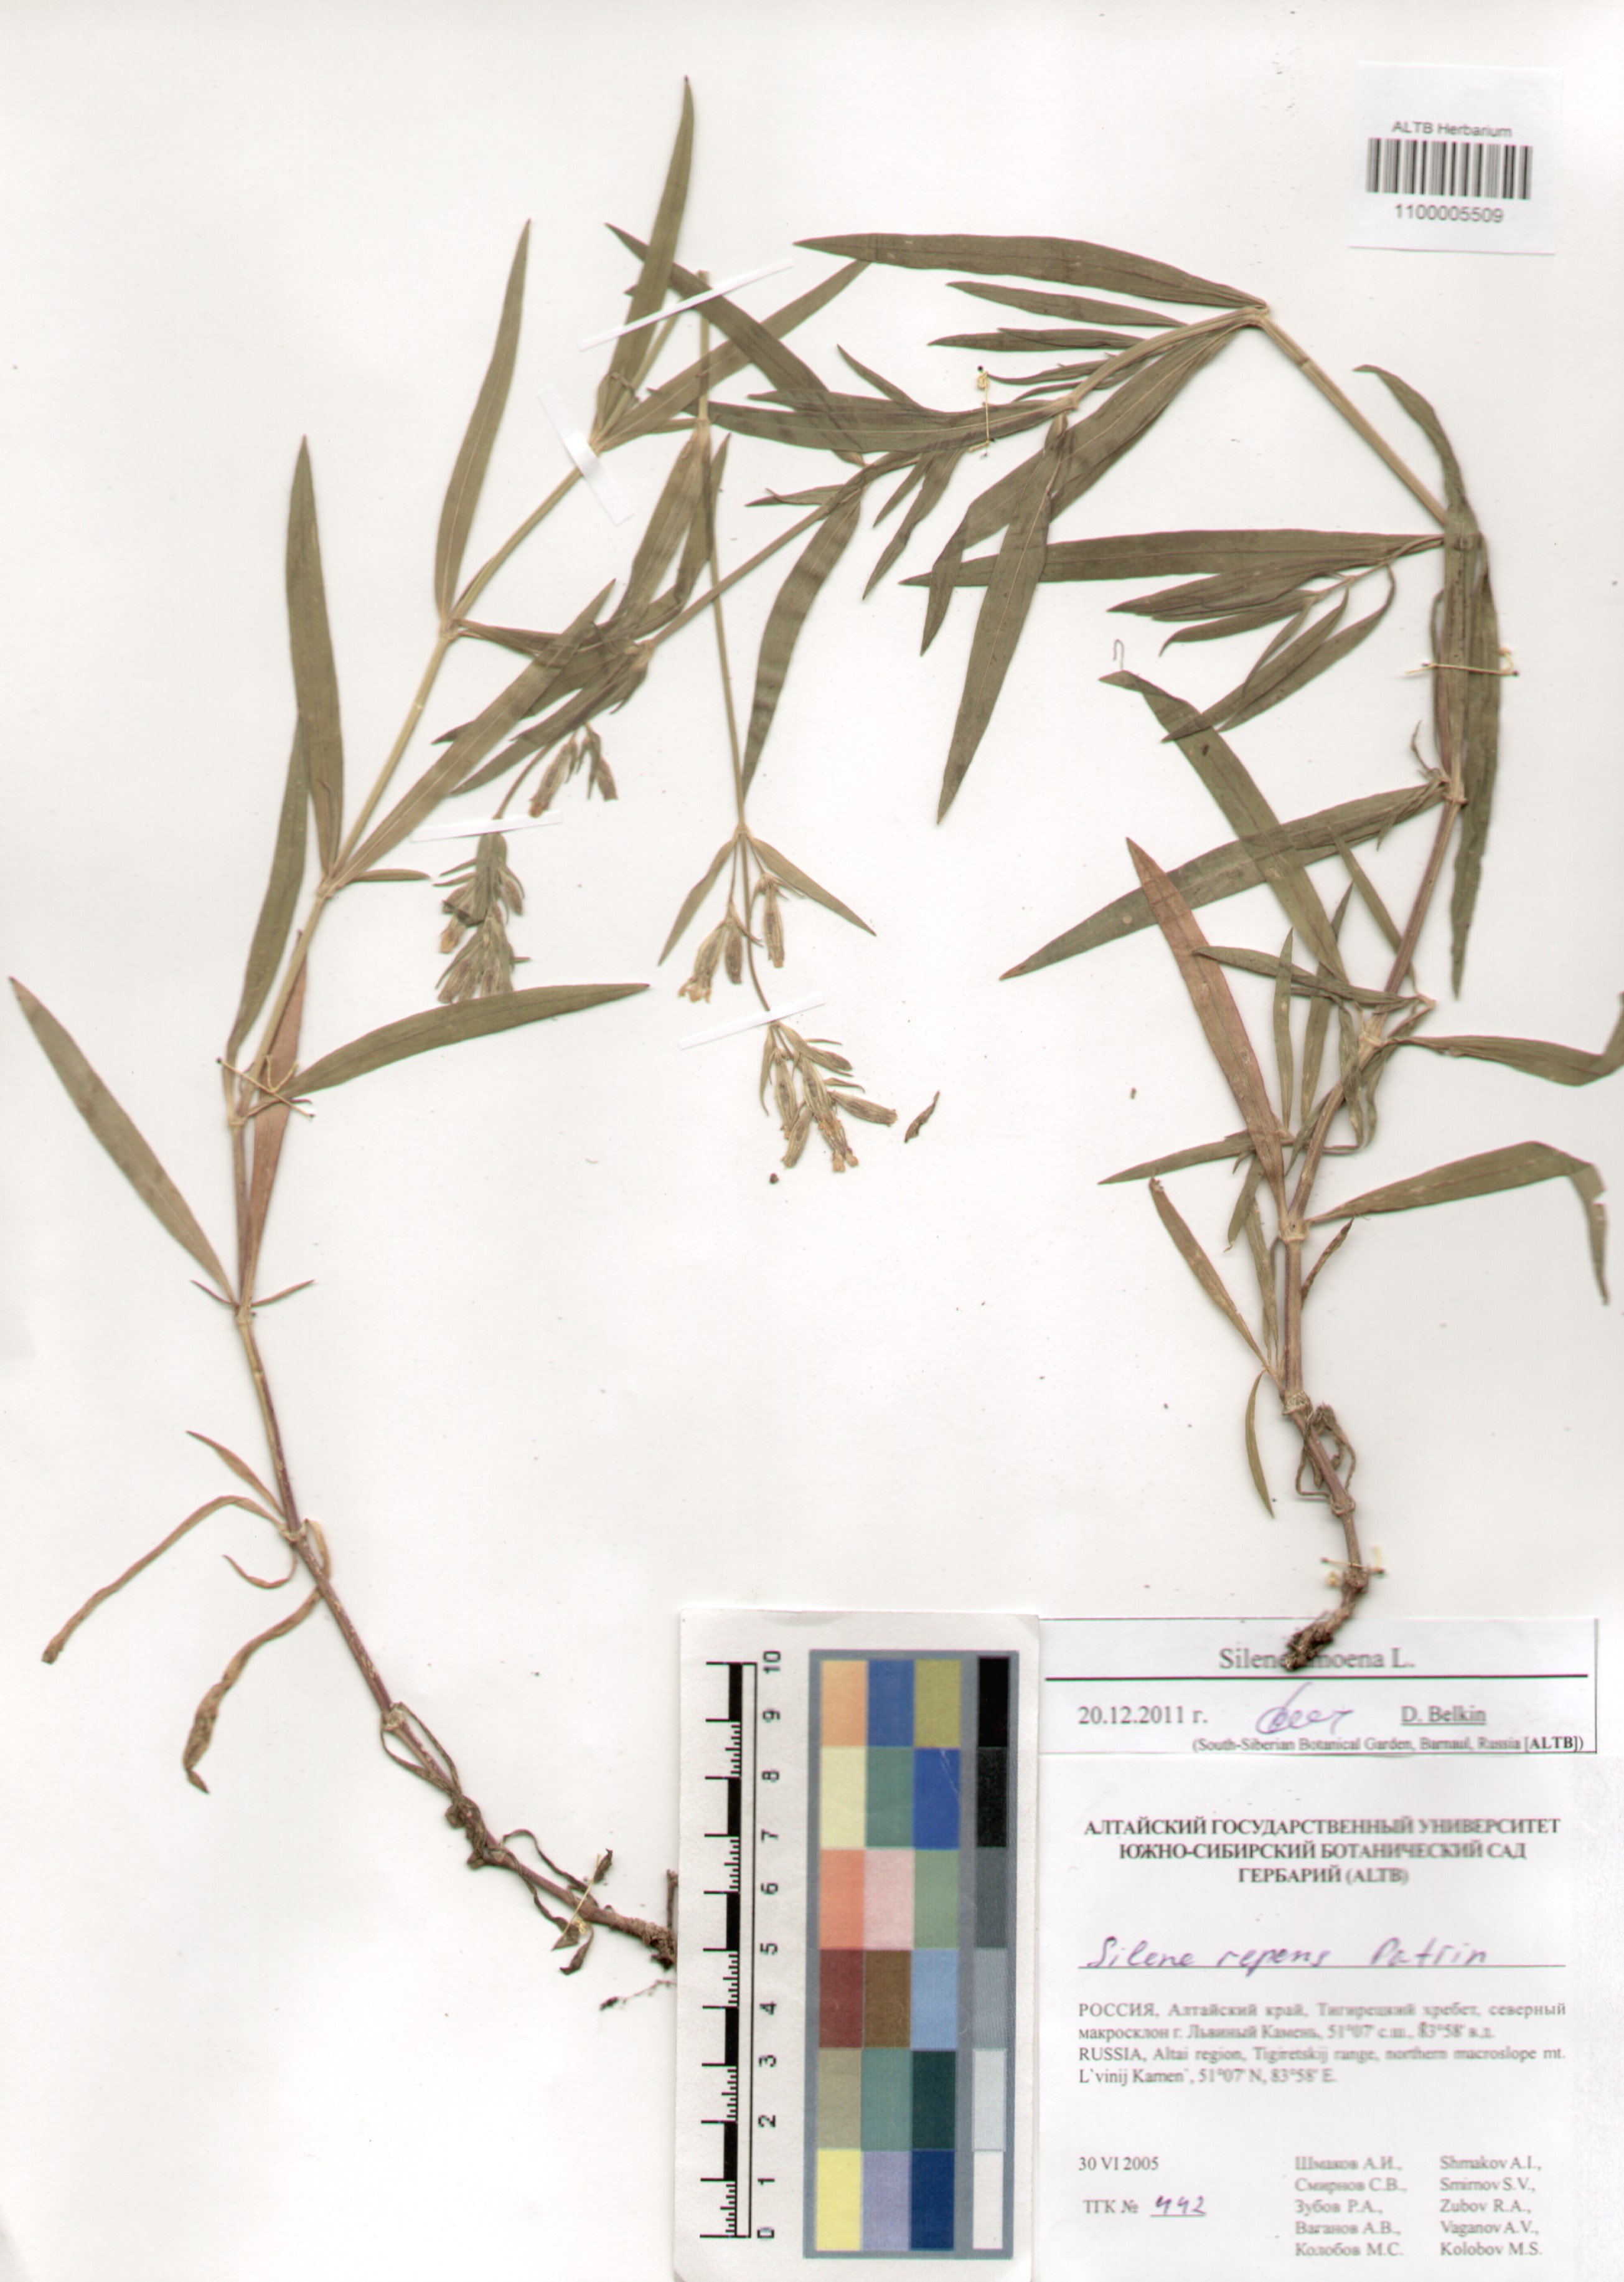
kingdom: Plantae
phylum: Tracheophyta
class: Magnoliopsida
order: Caryophyllales
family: Caryophyllaceae
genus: Silene
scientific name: Silene amoena
